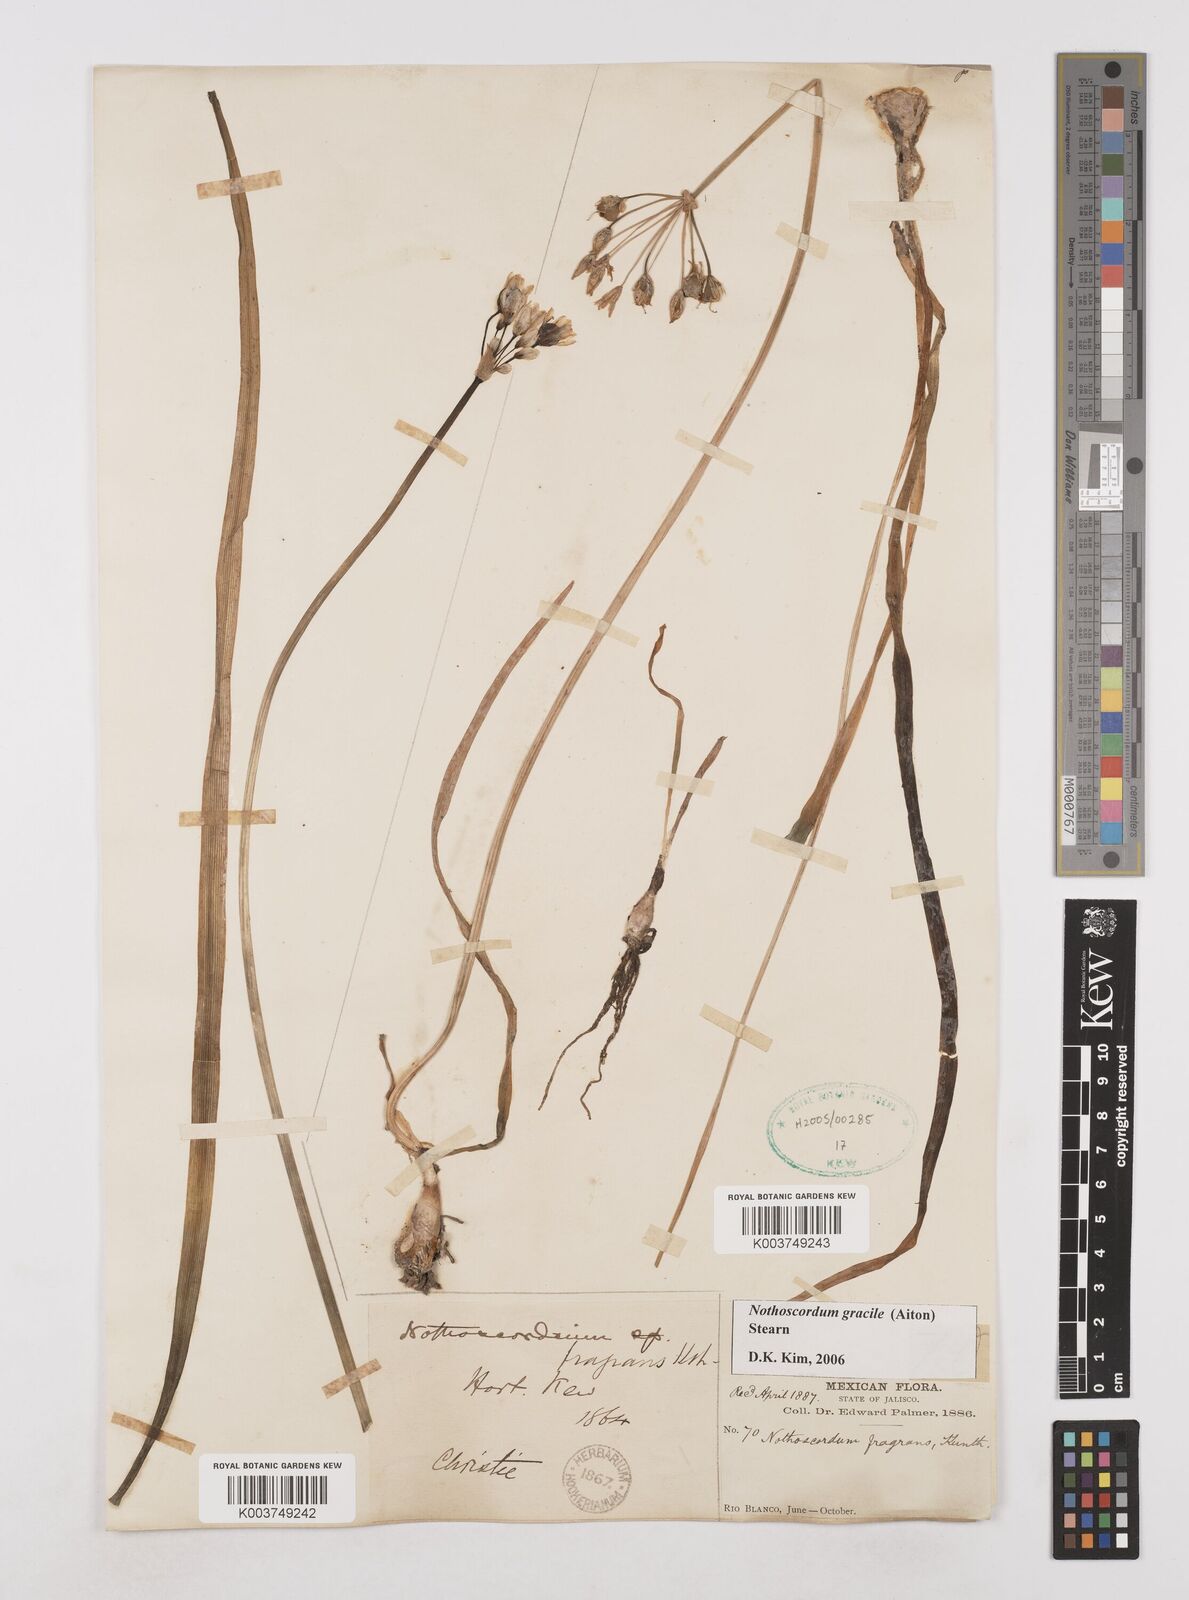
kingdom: Plantae
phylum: Tracheophyta
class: Liliopsida
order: Asparagales
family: Amaryllidaceae
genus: Nothoscordum
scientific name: Nothoscordum gracile
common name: Slender false garlic
